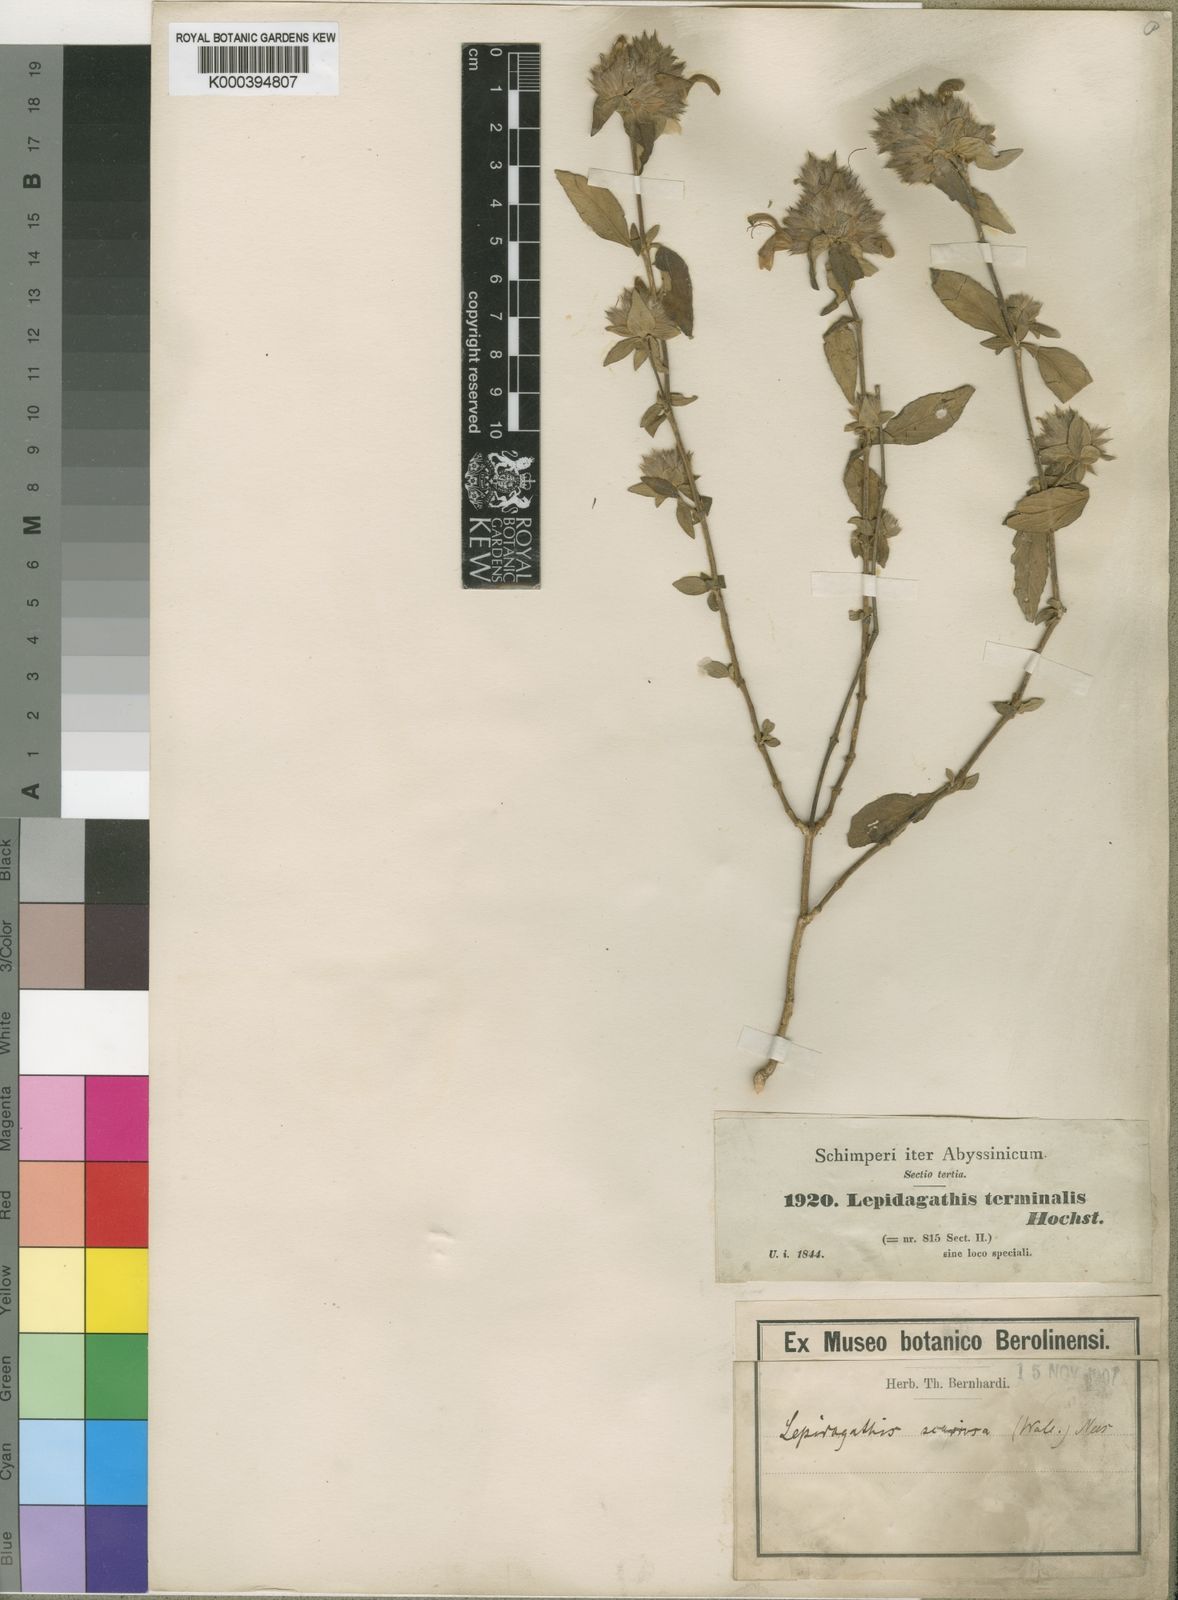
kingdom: Plantae
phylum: Tracheophyta
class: Magnoliopsida
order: Lamiales
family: Acanthaceae
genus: Lepidagathis
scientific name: Lepidagathis scariosa
